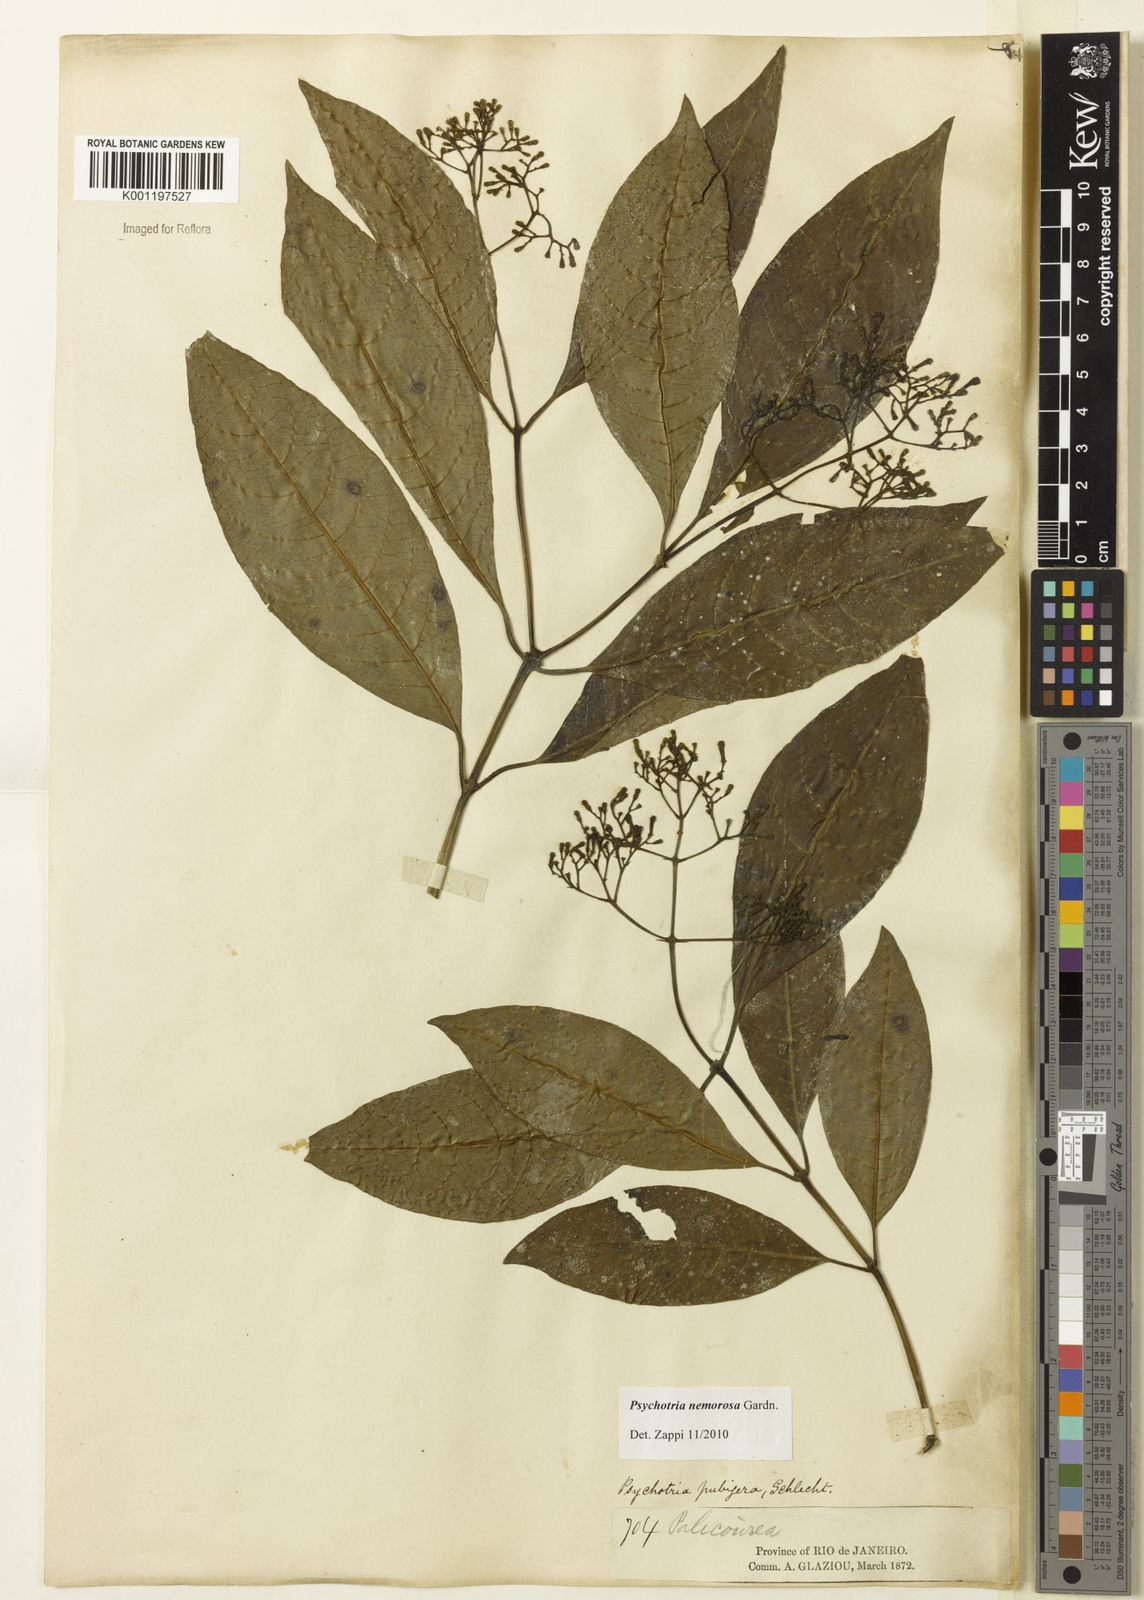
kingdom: Plantae
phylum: Tracheophyta
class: Magnoliopsida
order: Gentianales
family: Rubiaceae
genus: Psychotria
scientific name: Psychotria nemorosa
